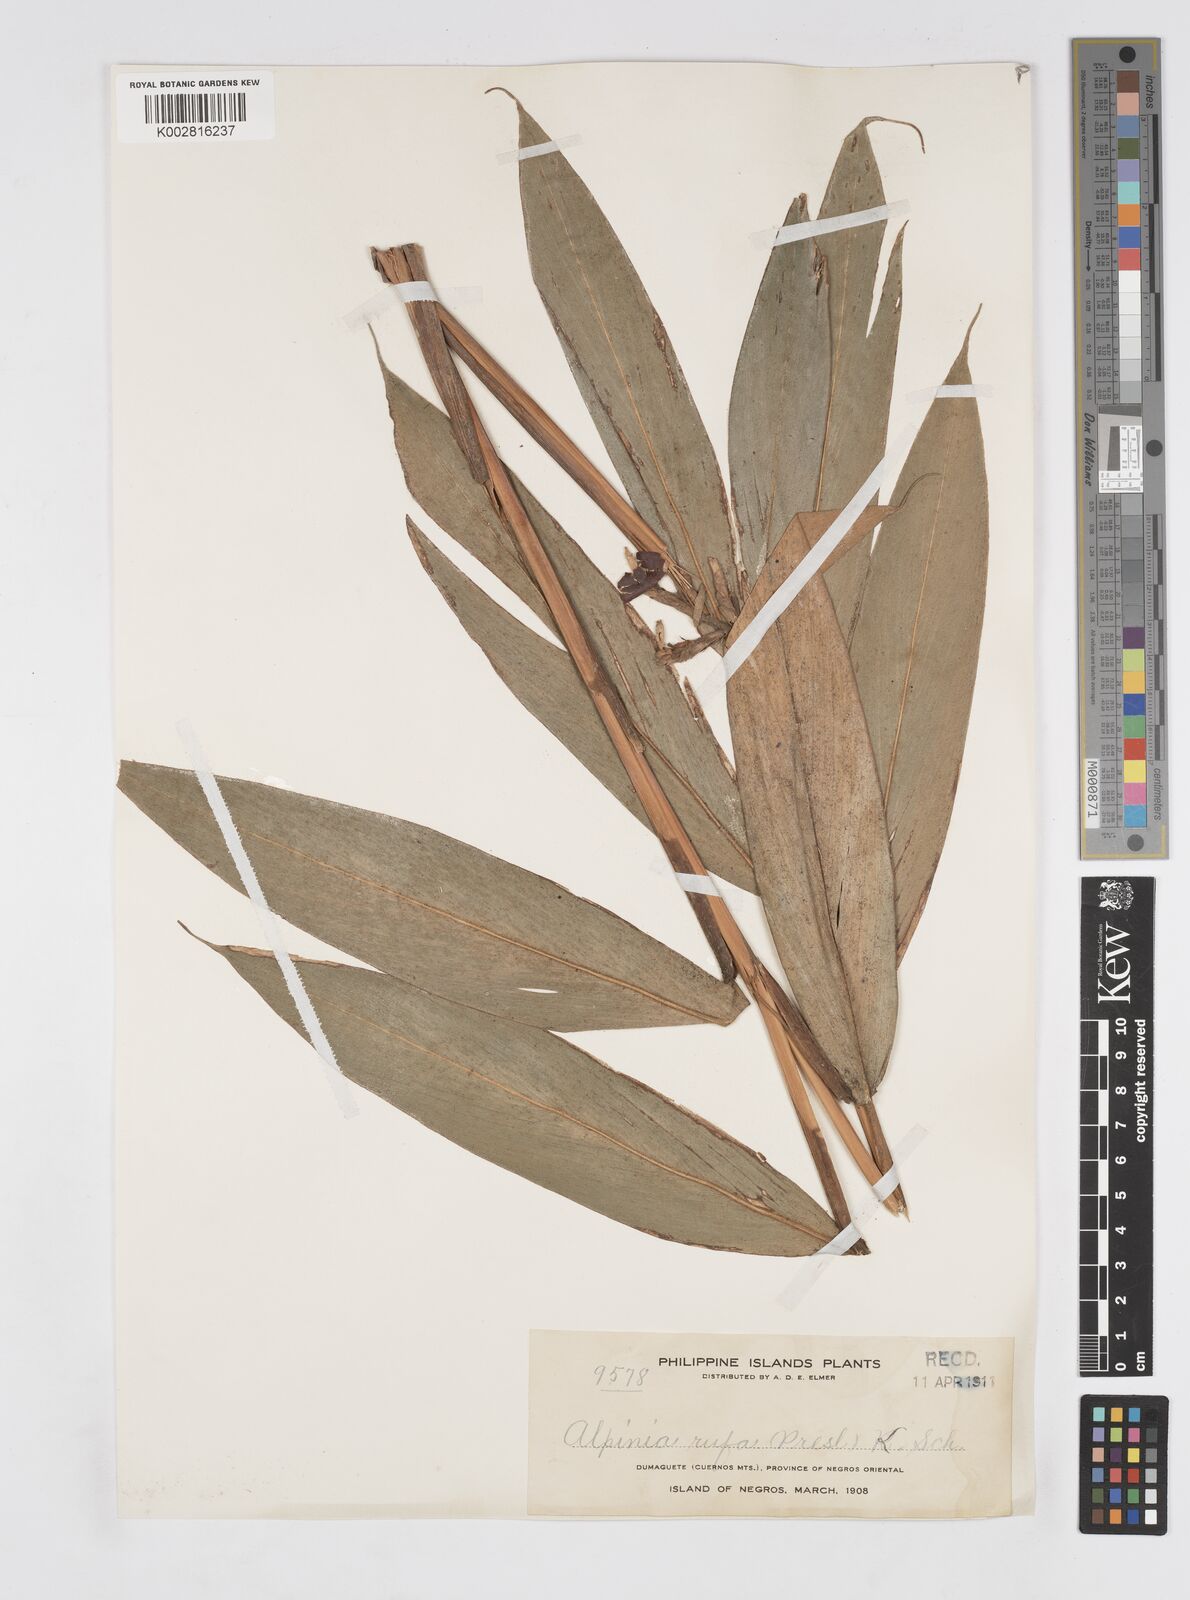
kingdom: Plantae
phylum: Tracheophyta
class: Liliopsida
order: Zingiberales
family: Zingiberaceae
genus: Alpinia
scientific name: Alpinia rufa
